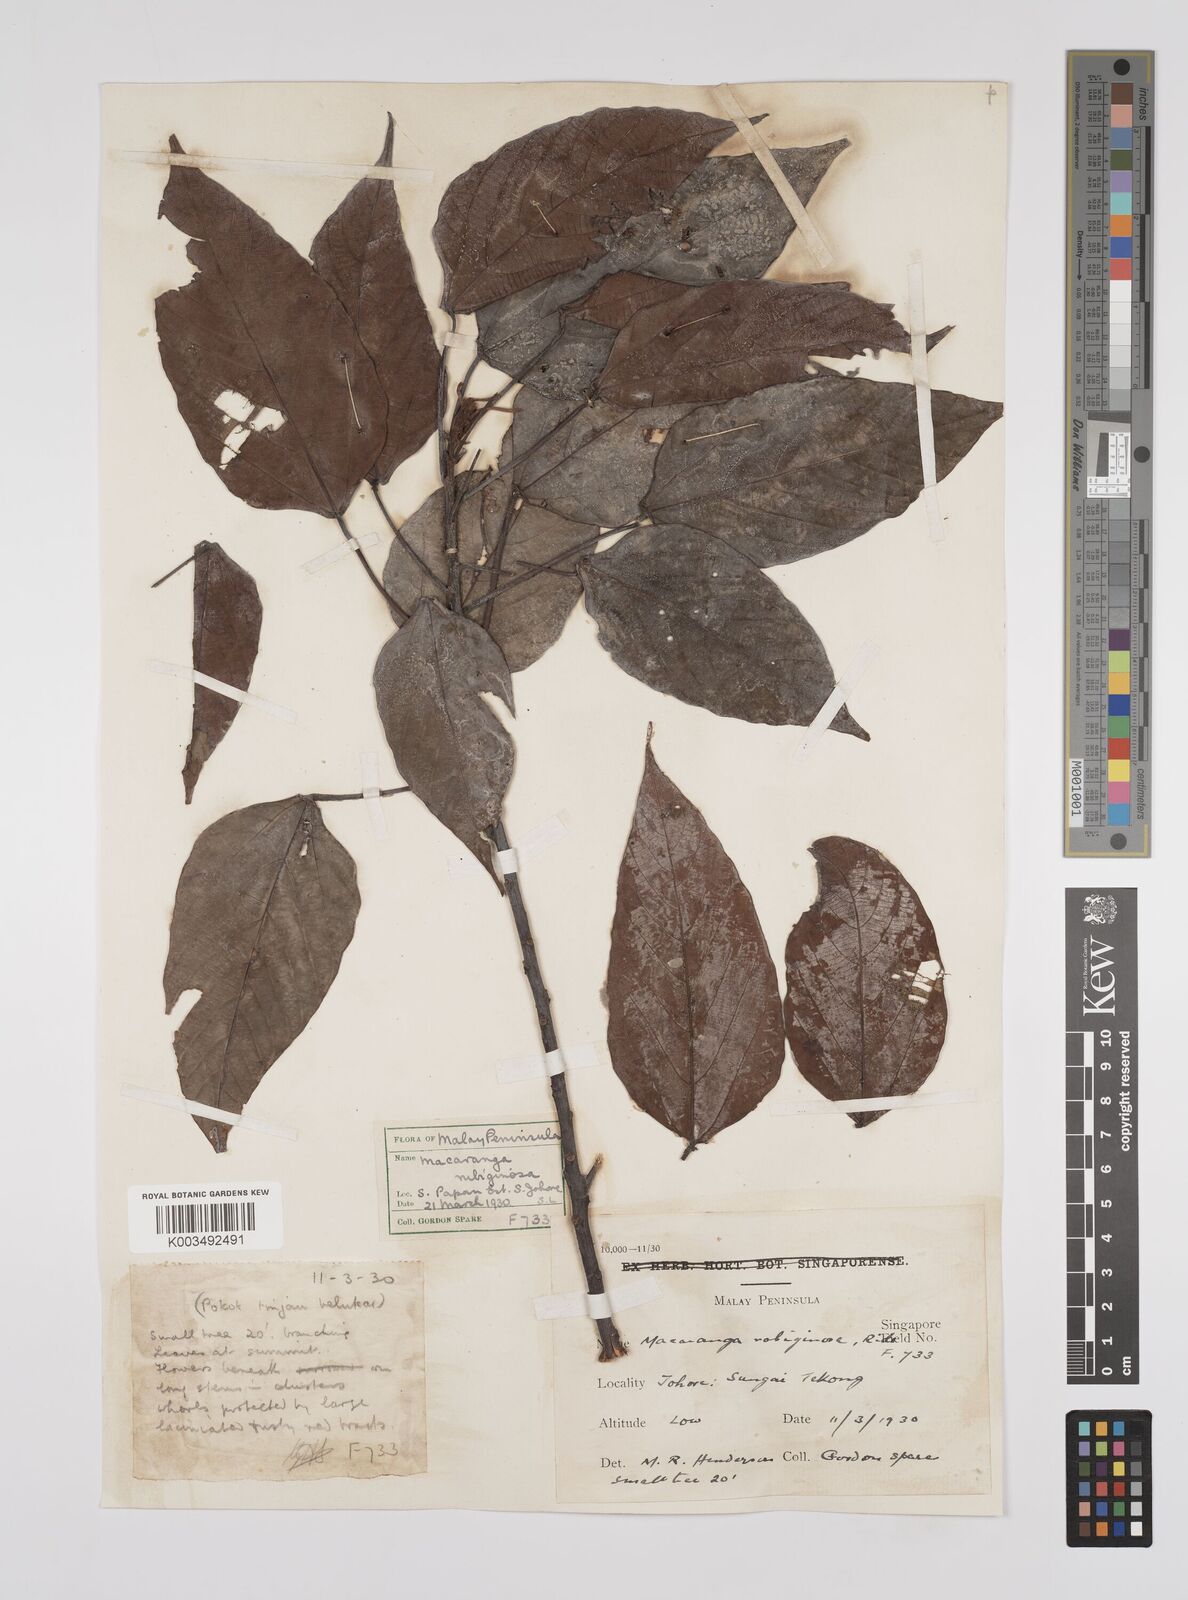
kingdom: Plantae
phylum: Tracheophyta
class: Magnoliopsida
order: Malpighiales
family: Euphorbiaceae
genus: Macaranga
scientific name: Macaranga heynei
